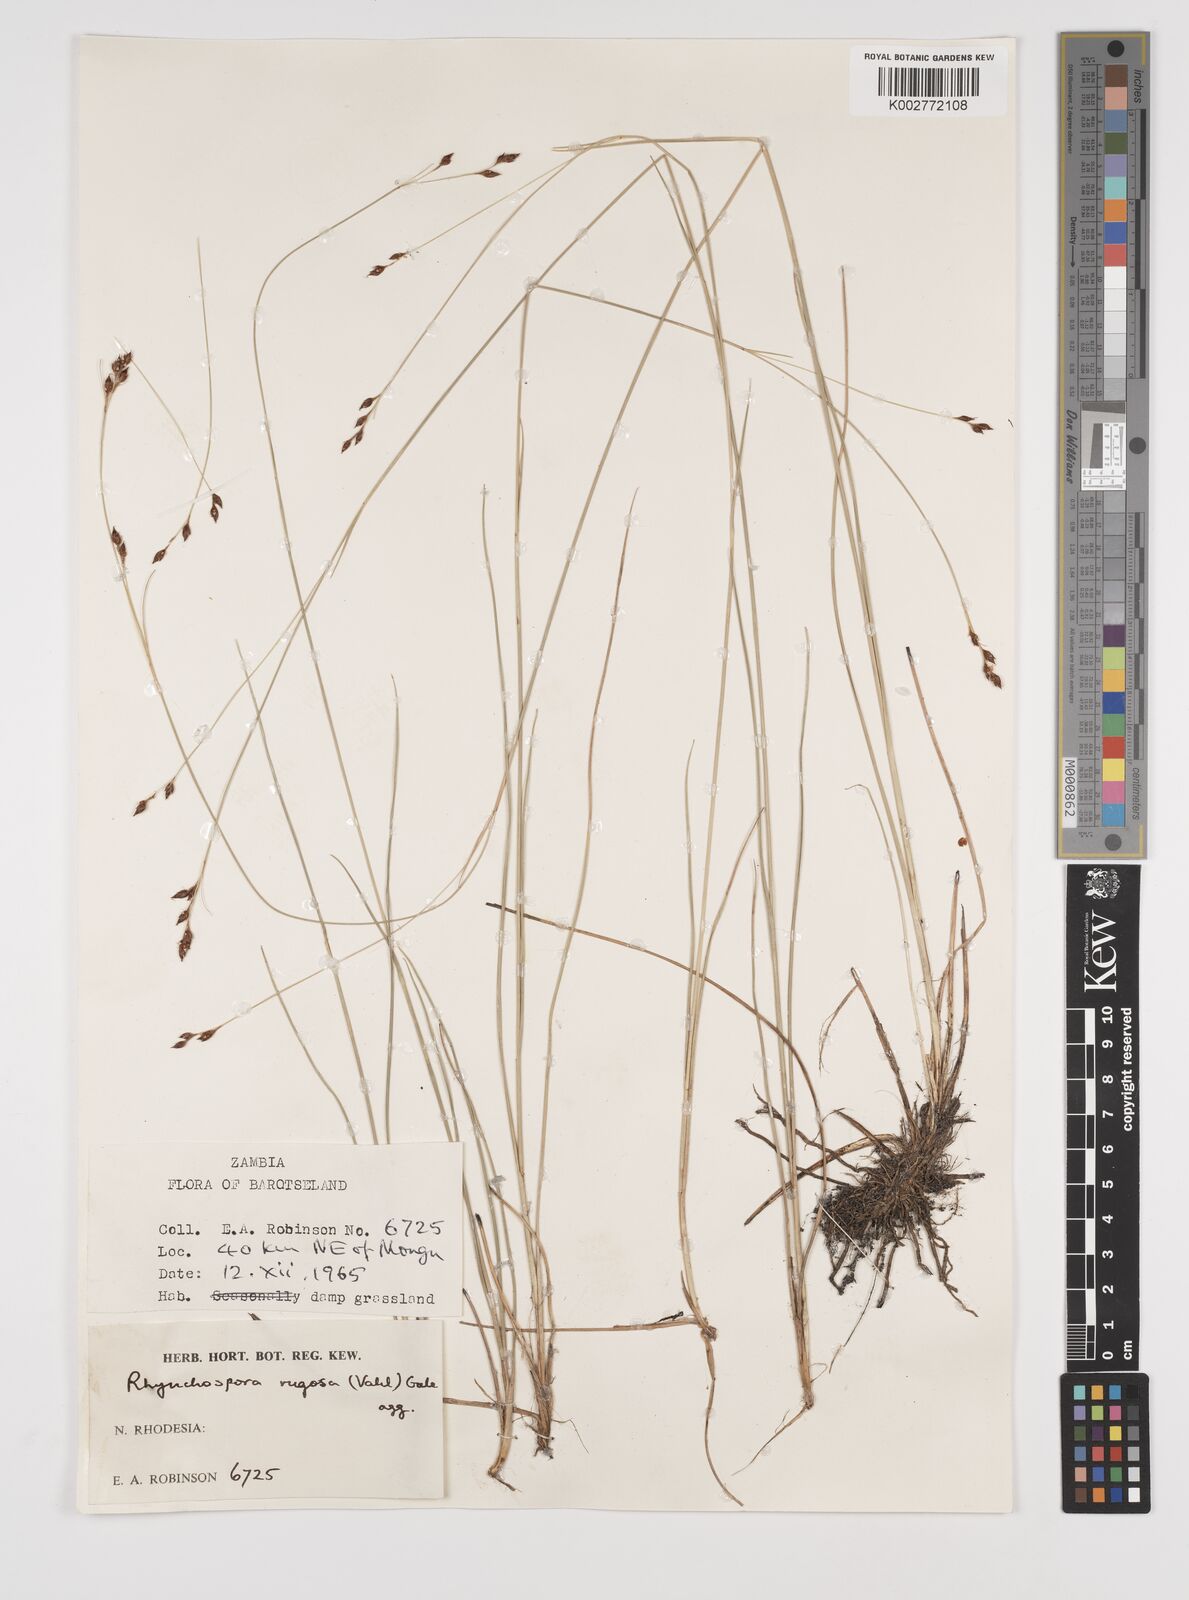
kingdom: Plantae
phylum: Tracheophyta
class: Liliopsida
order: Poales
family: Cyperaceae
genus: Rhynchospora
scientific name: Rhynchospora rugosa
